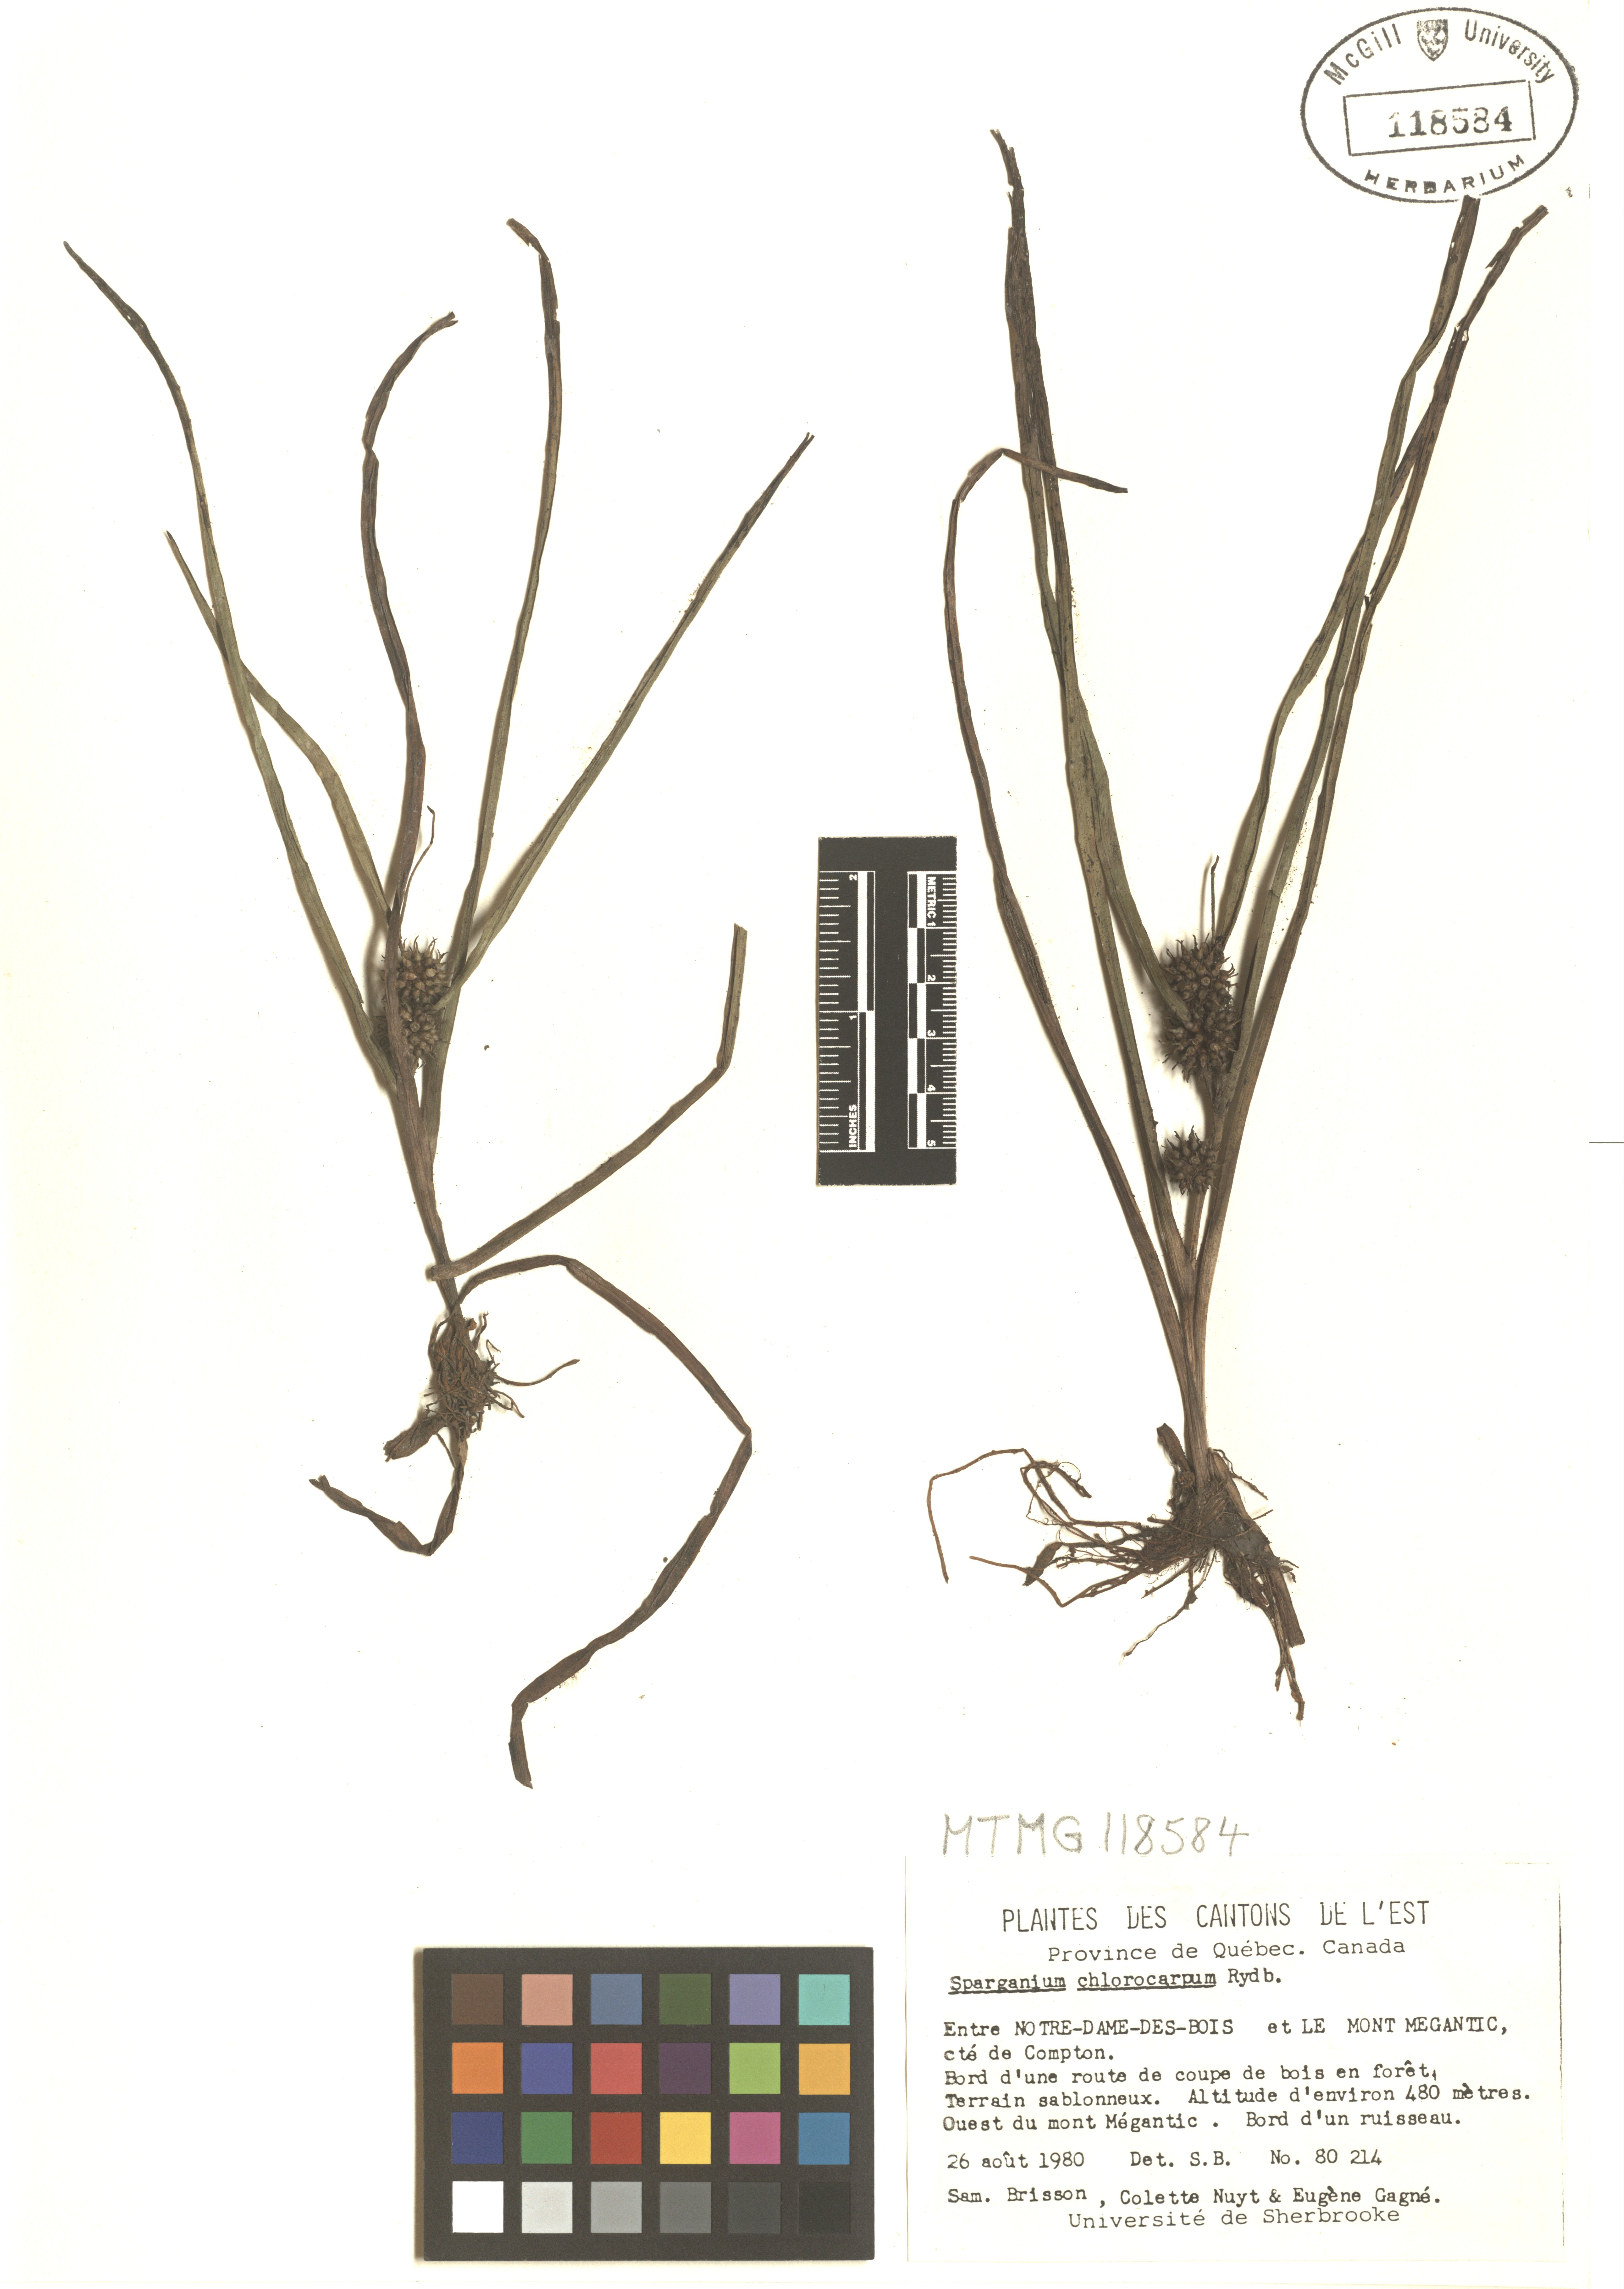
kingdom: Plantae
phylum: Tracheophyta
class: Liliopsida
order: Poales
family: Typhaceae
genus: Sparganium
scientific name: Sparganium emersum
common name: Unbranched bur-reed
